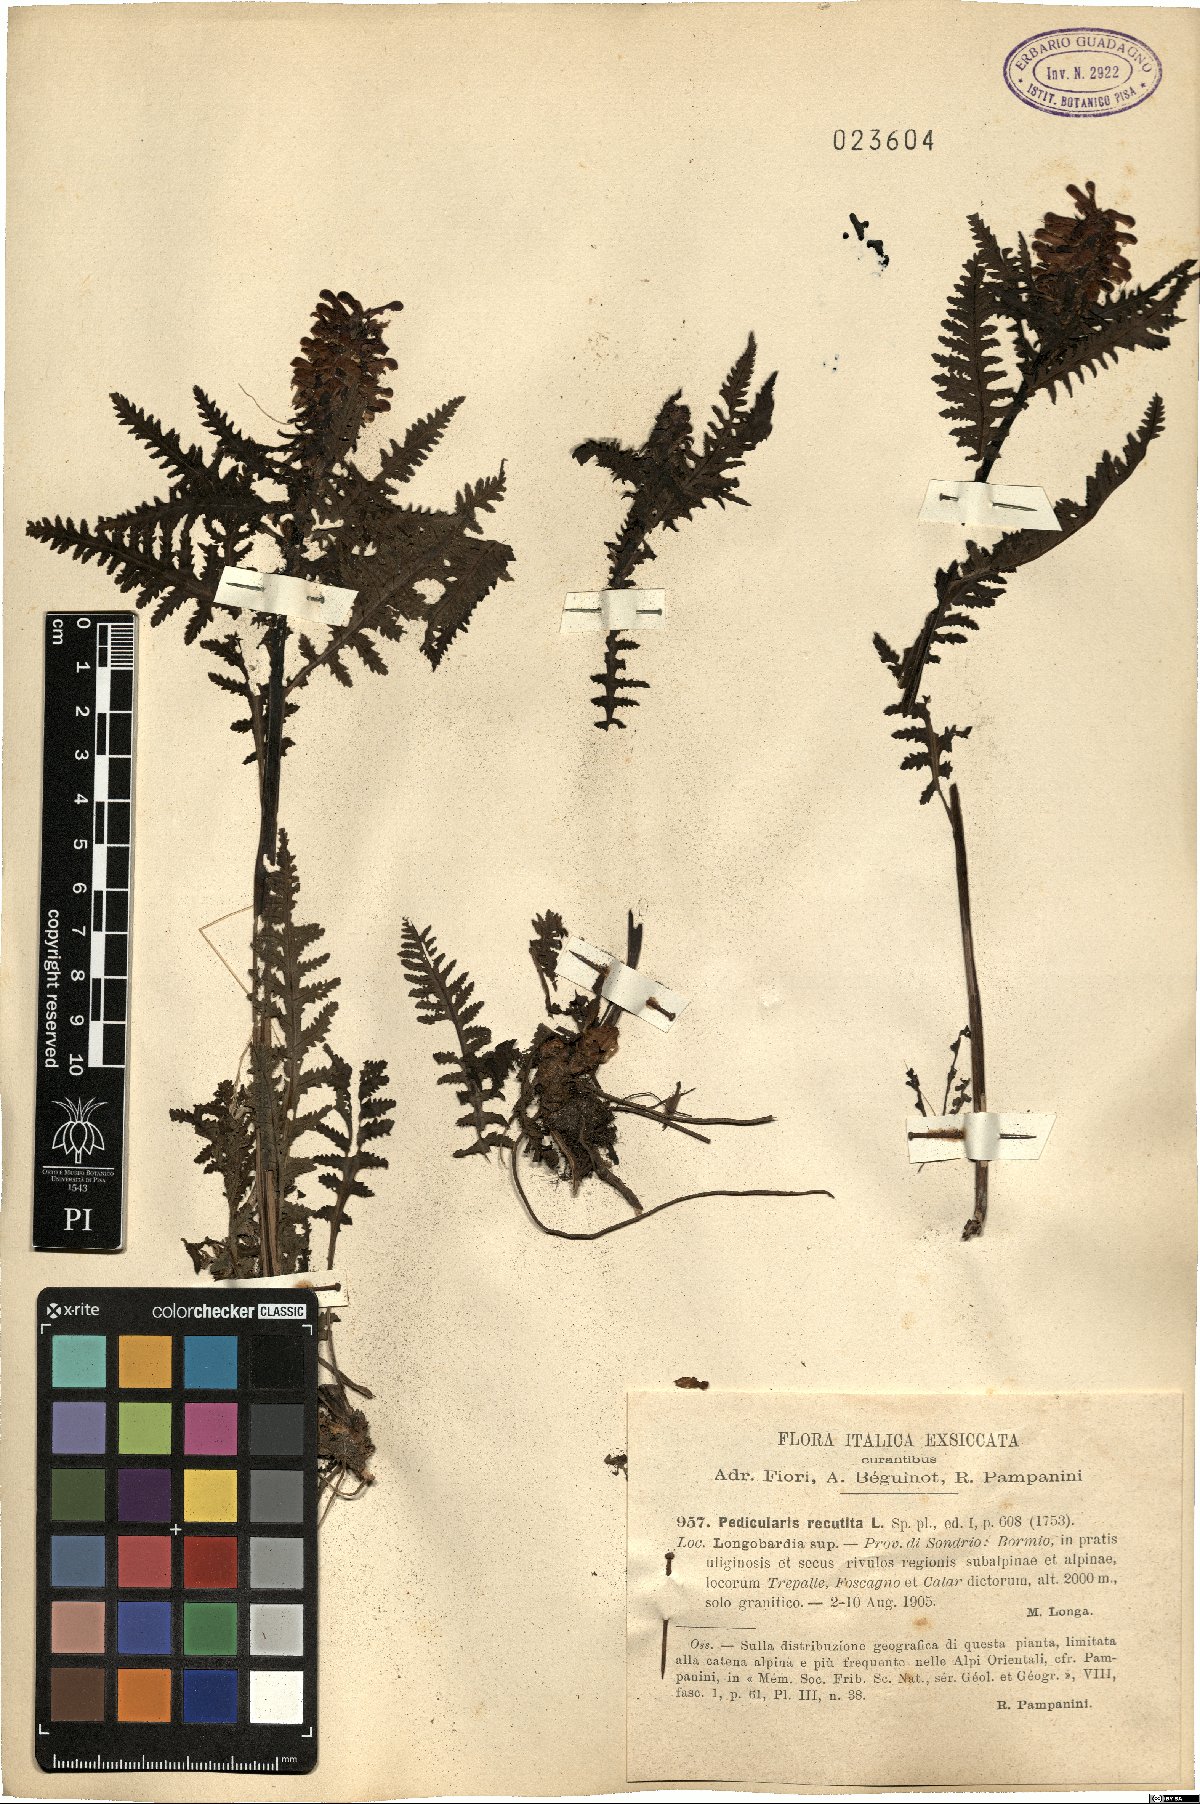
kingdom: Plantae
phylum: Tracheophyta
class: Magnoliopsida
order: Lamiales
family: Orobanchaceae
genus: Pedicularis
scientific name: Pedicularis recutita
